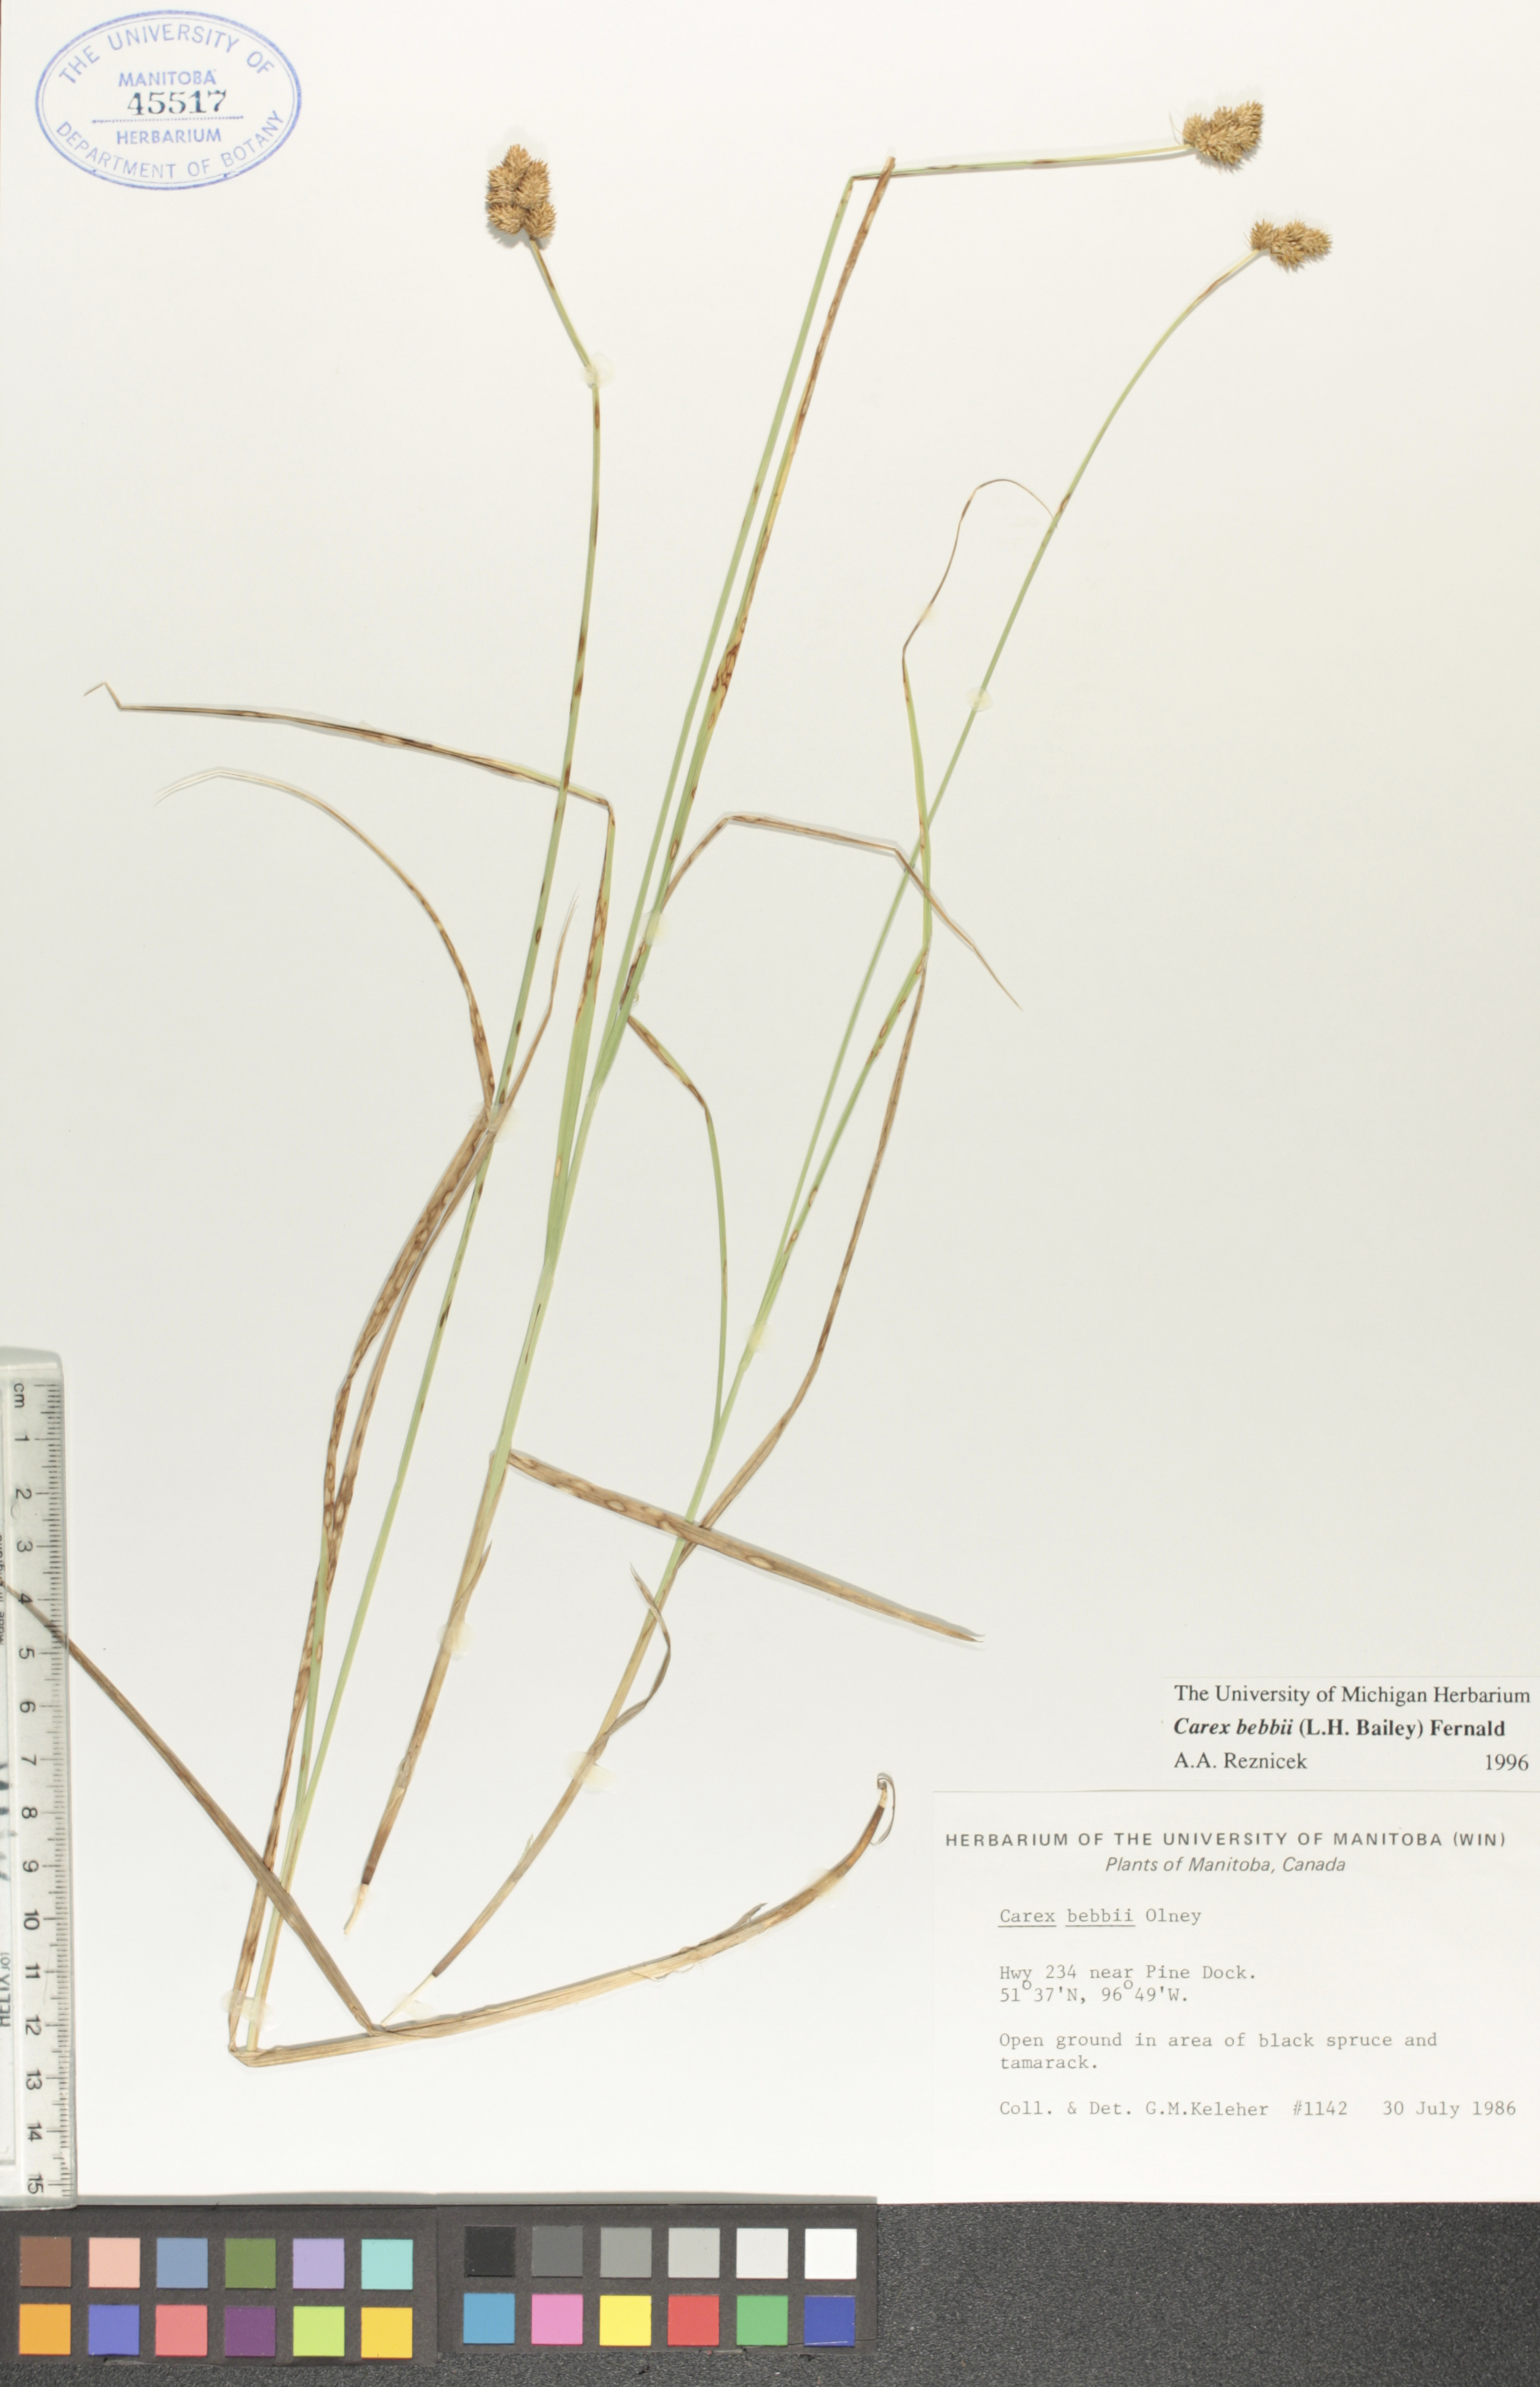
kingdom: Plantae
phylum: Tracheophyta
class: Liliopsida
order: Poales
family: Cyperaceae
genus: Carex
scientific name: Carex bebbii
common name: Bebb's sedge
